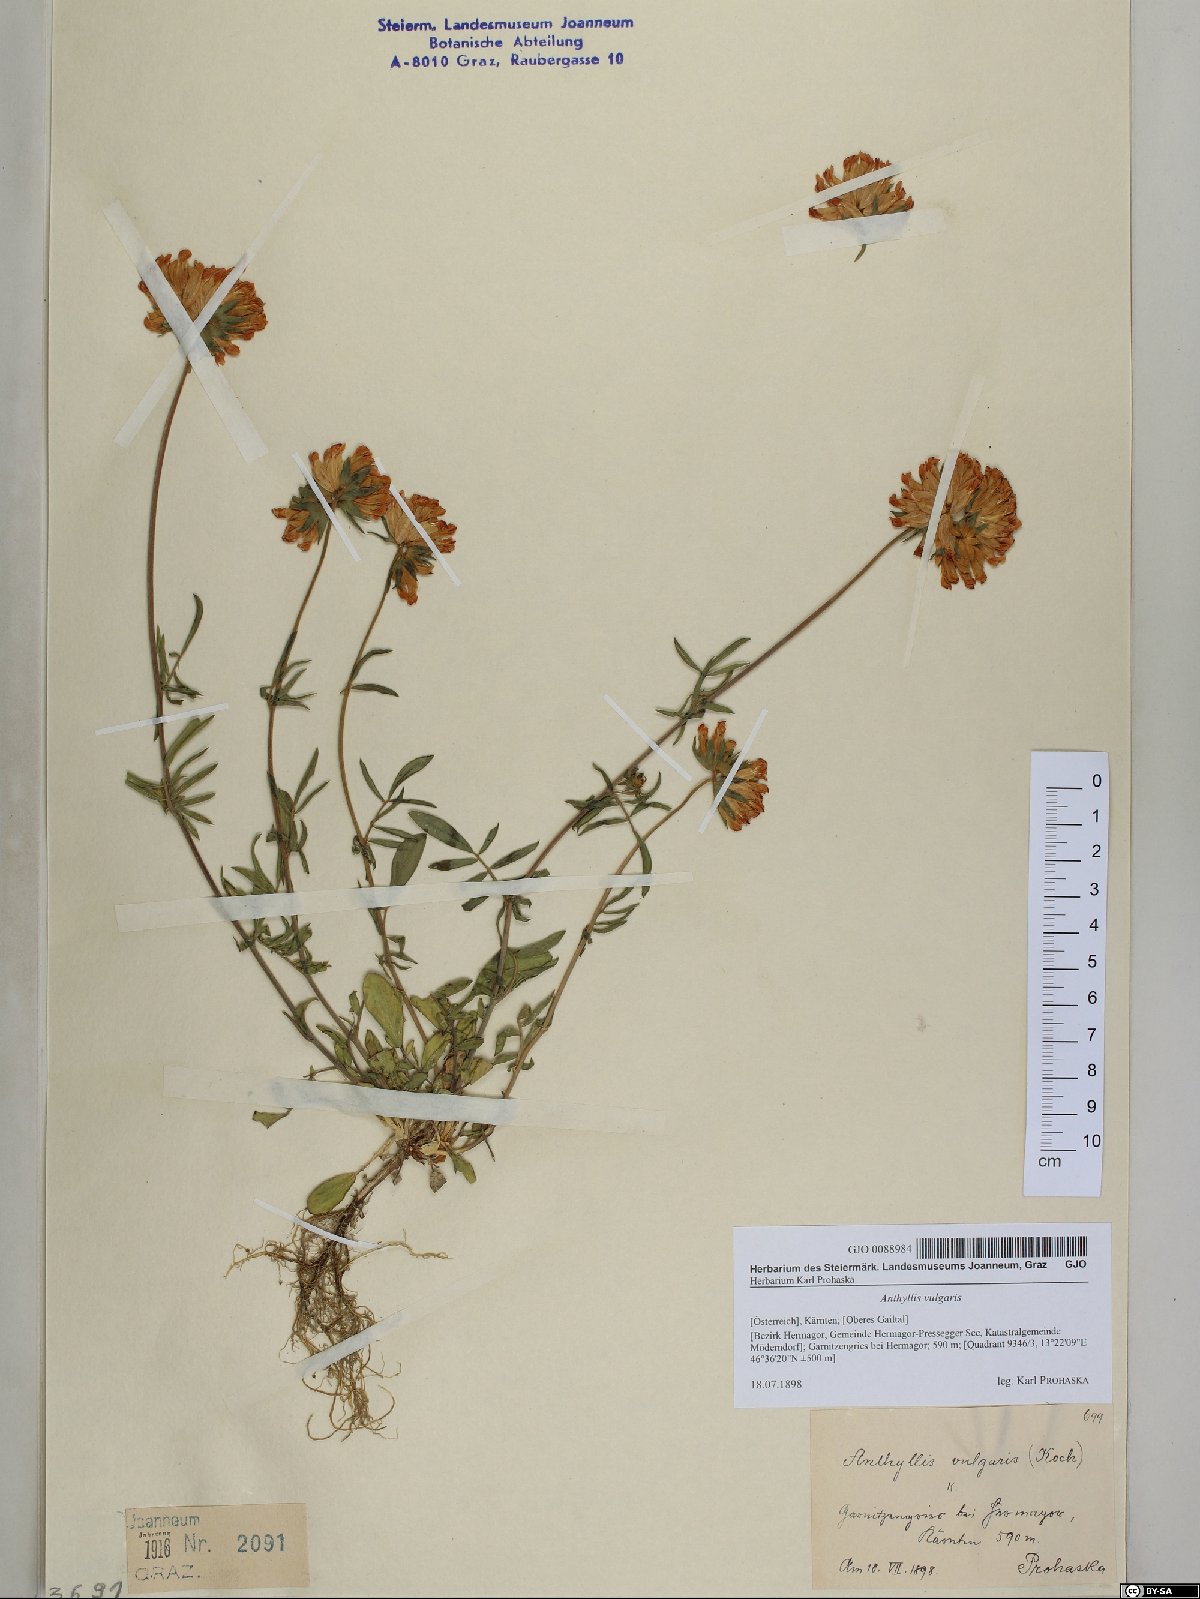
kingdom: Plantae
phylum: Tracheophyta
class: Magnoliopsida
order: Fabales
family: Fabaceae
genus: Anthyllis
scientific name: Anthyllis vulneraria
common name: Kidney vetch
